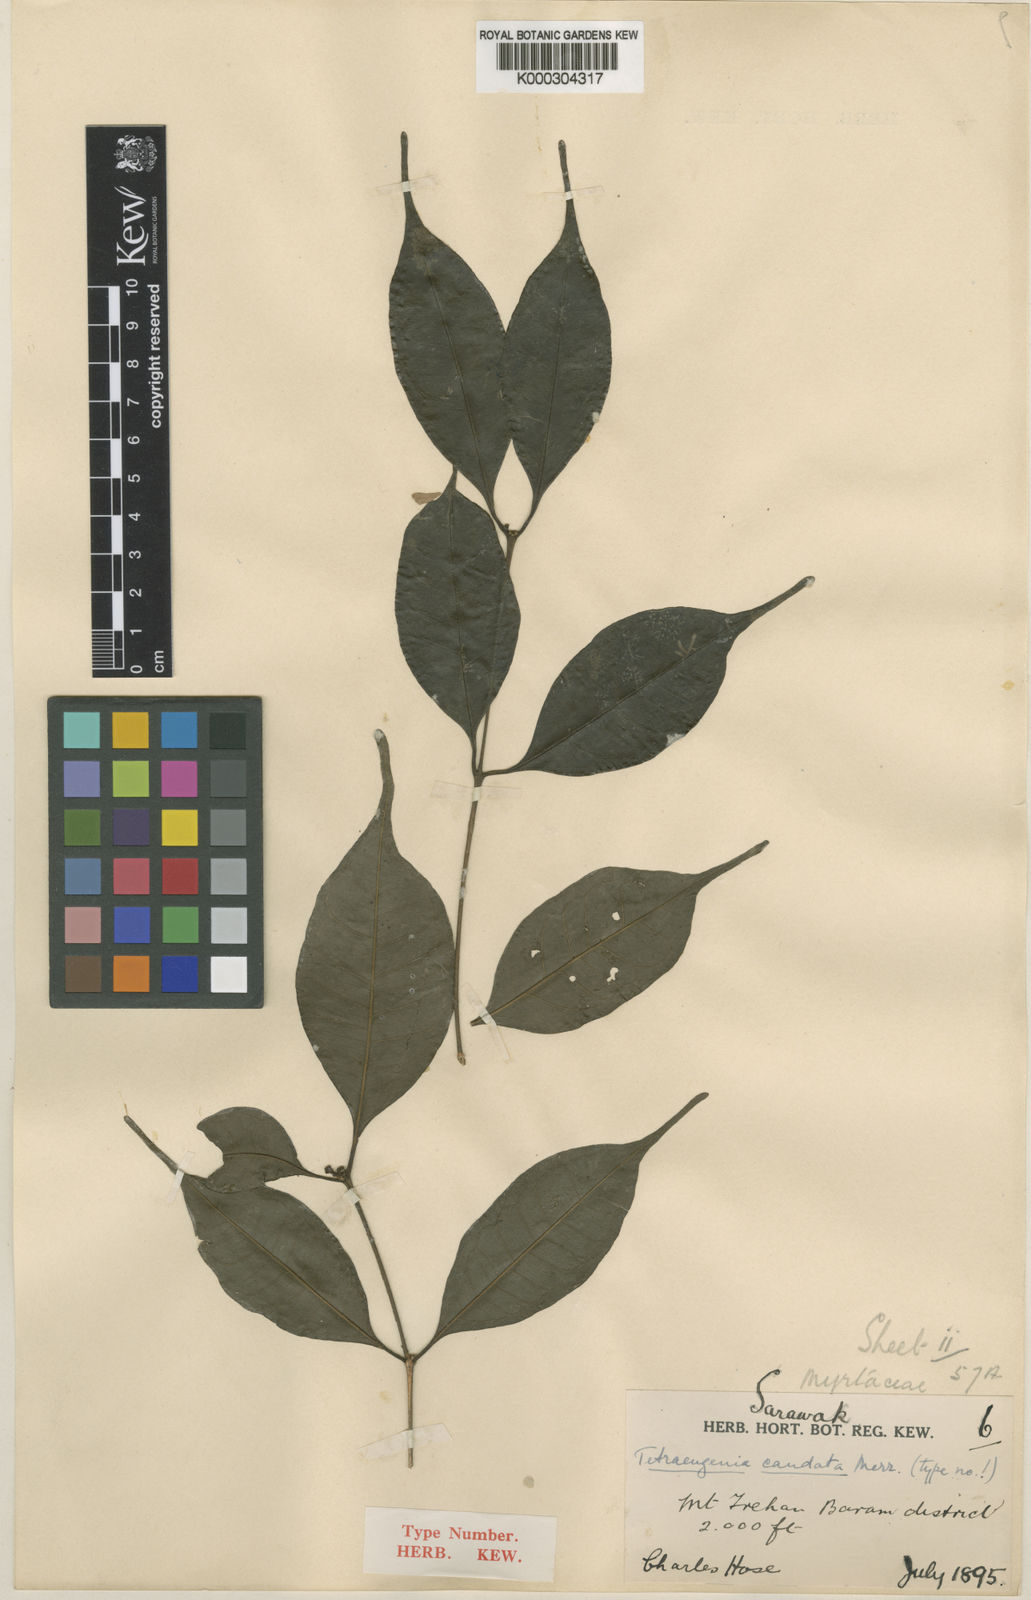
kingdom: Plantae
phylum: Tracheophyta
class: Magnoliopsida
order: Myrtales
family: Myrtaceae
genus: Syzygium
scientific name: Syzygium caudatum
